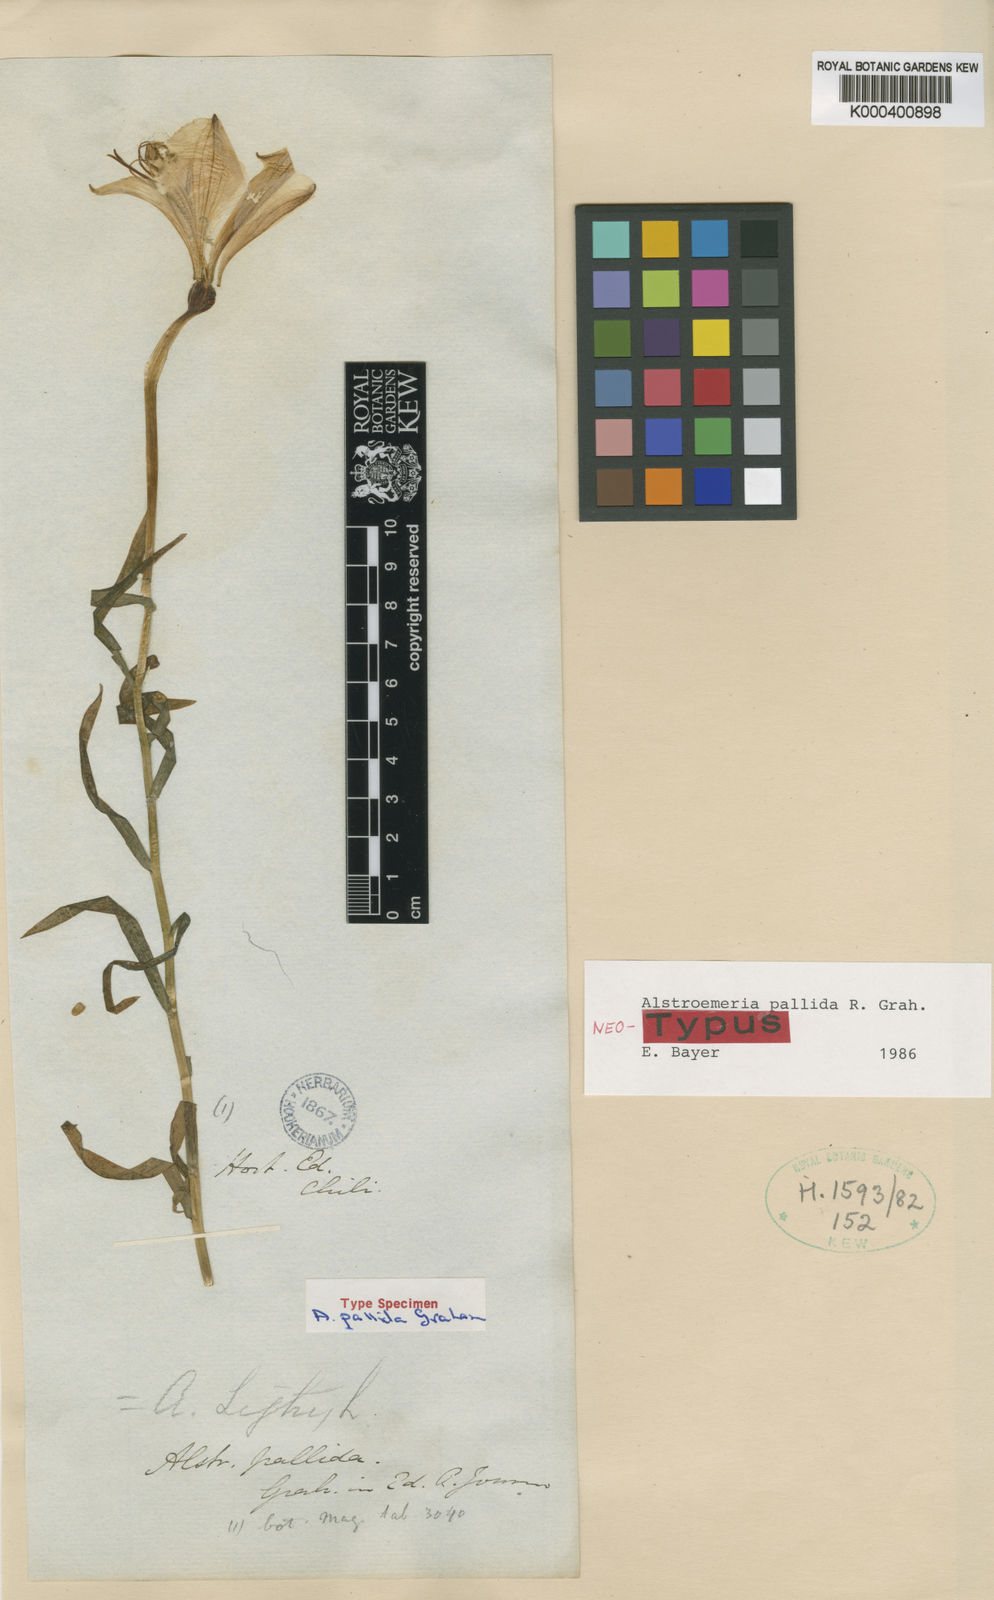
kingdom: Plantae
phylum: Tracheophyta
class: Liliopsida
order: Liliales
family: Alstroemeriaceae
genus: Alstroemeria
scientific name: Alstroemeria pallida
